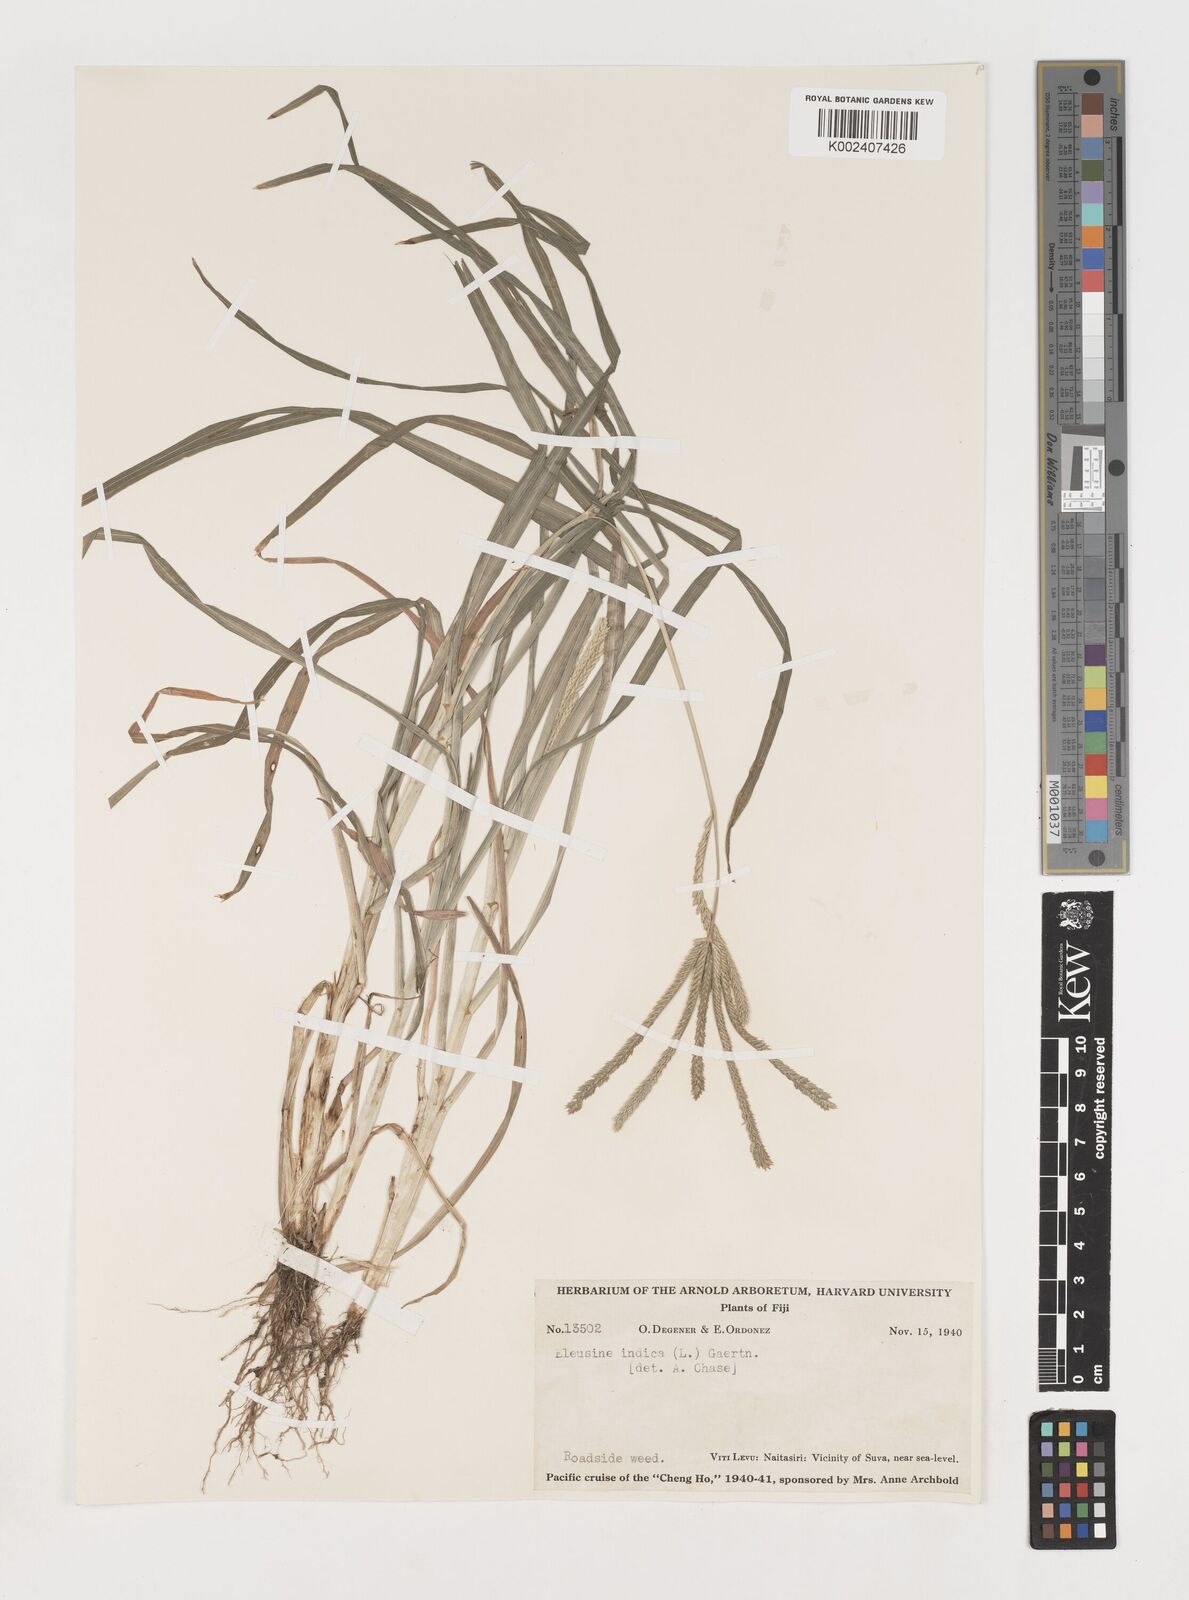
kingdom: Plantae
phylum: Tracheophyta
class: Liliopsida
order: Poales
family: Poaceae
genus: Eleusine
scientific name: Eleusine indica
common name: Yard-grass
